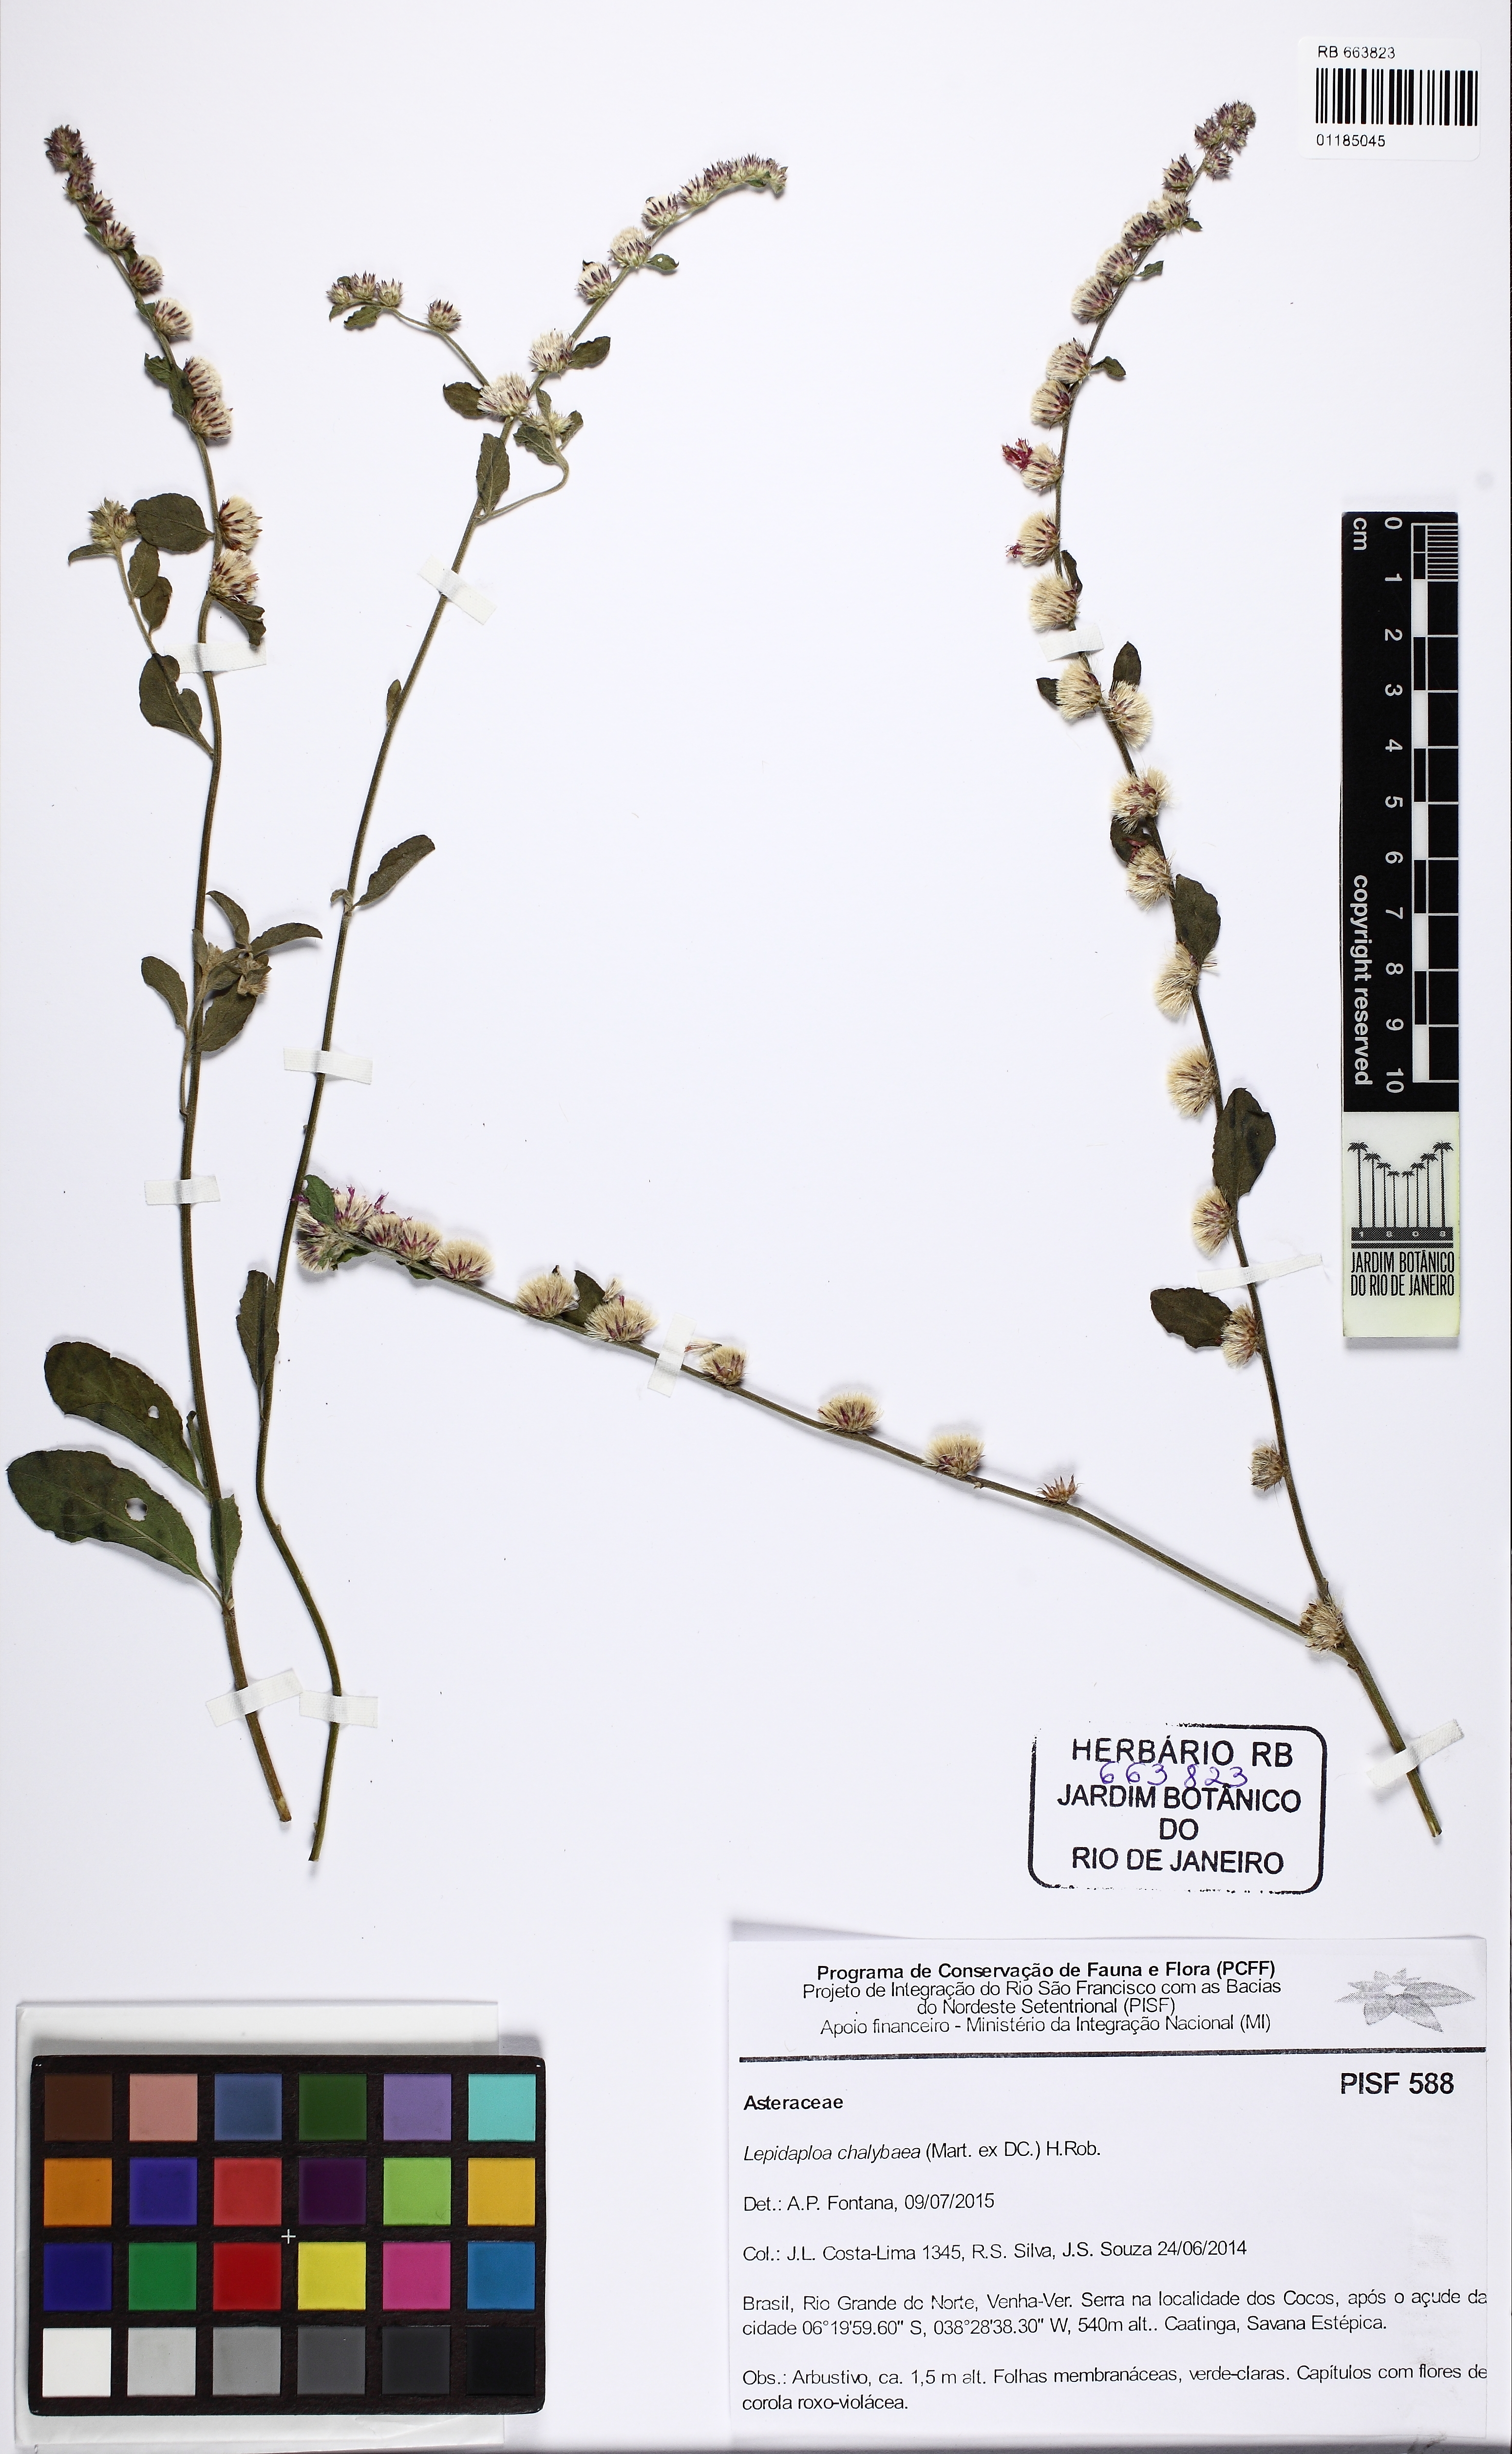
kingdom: Plantae
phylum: Tracheophyta
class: Magnoliopsida
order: Asterales
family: Asteraceae
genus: Lepidaploa
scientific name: Lepidaploa chalybaea
